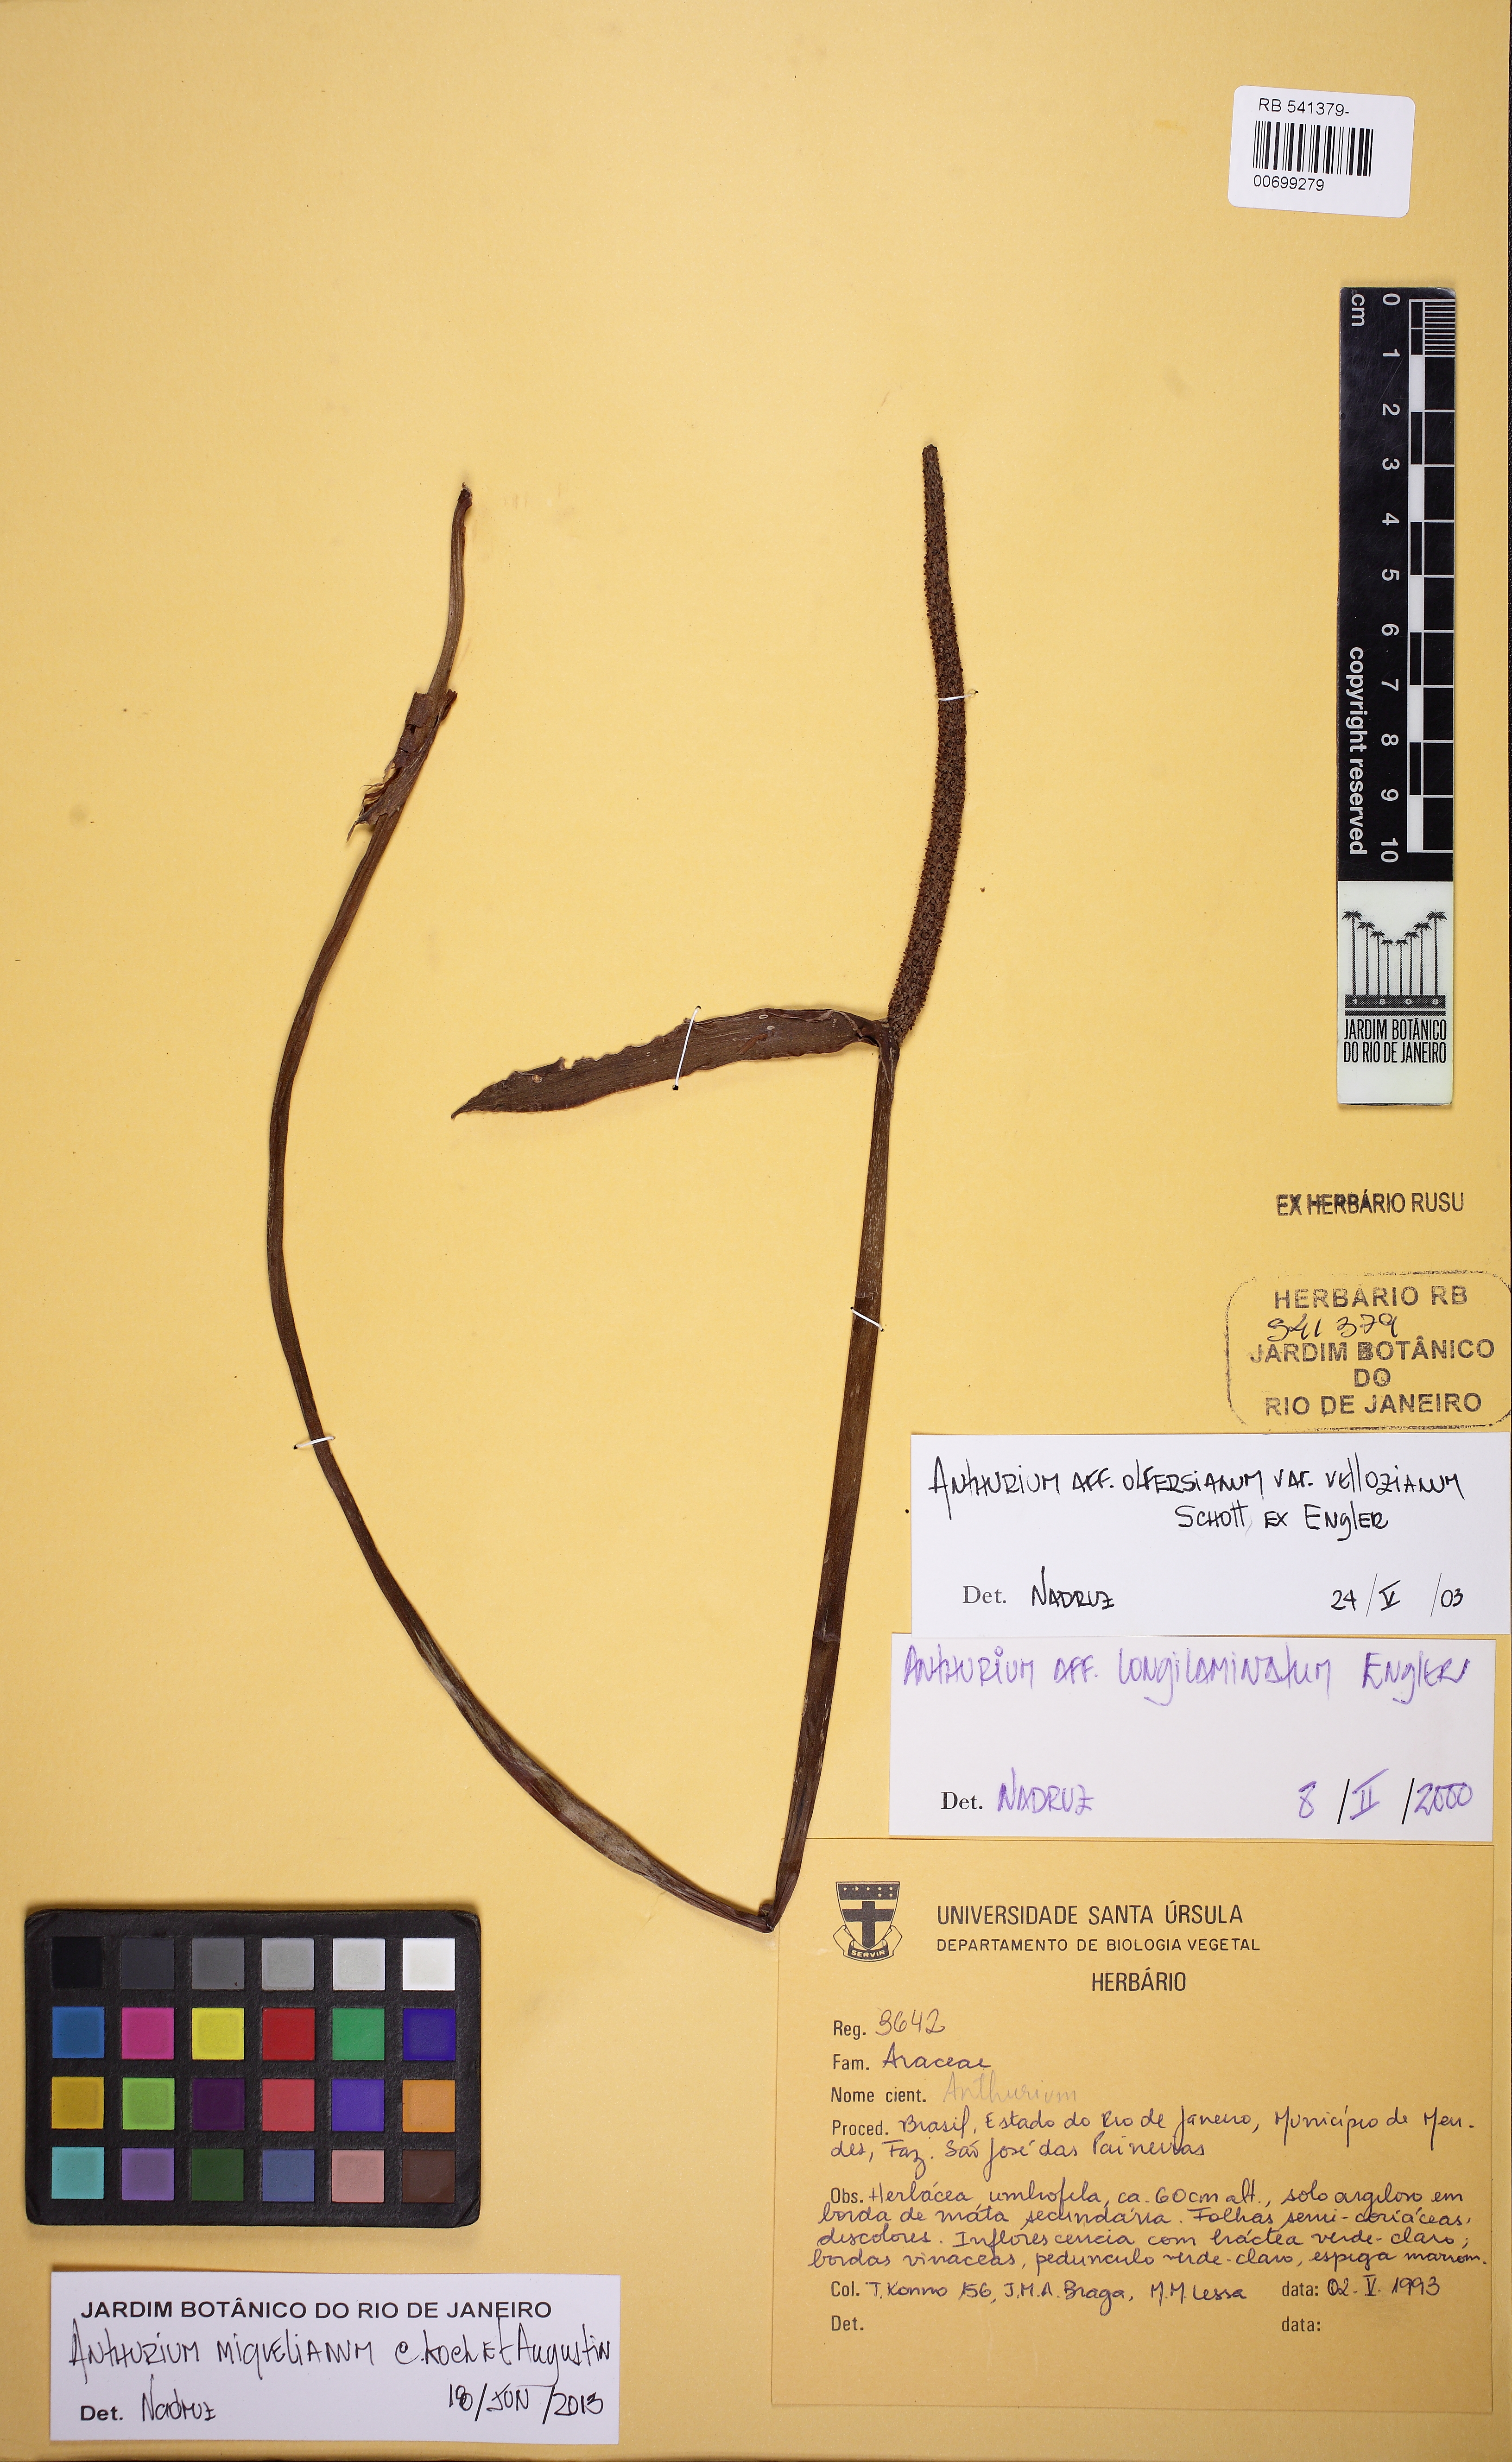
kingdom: Plantae
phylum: Tracheophyta
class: Liliopsida
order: Alismatales
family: Araceae
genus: Anthurium
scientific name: Anthurium parasiticum
